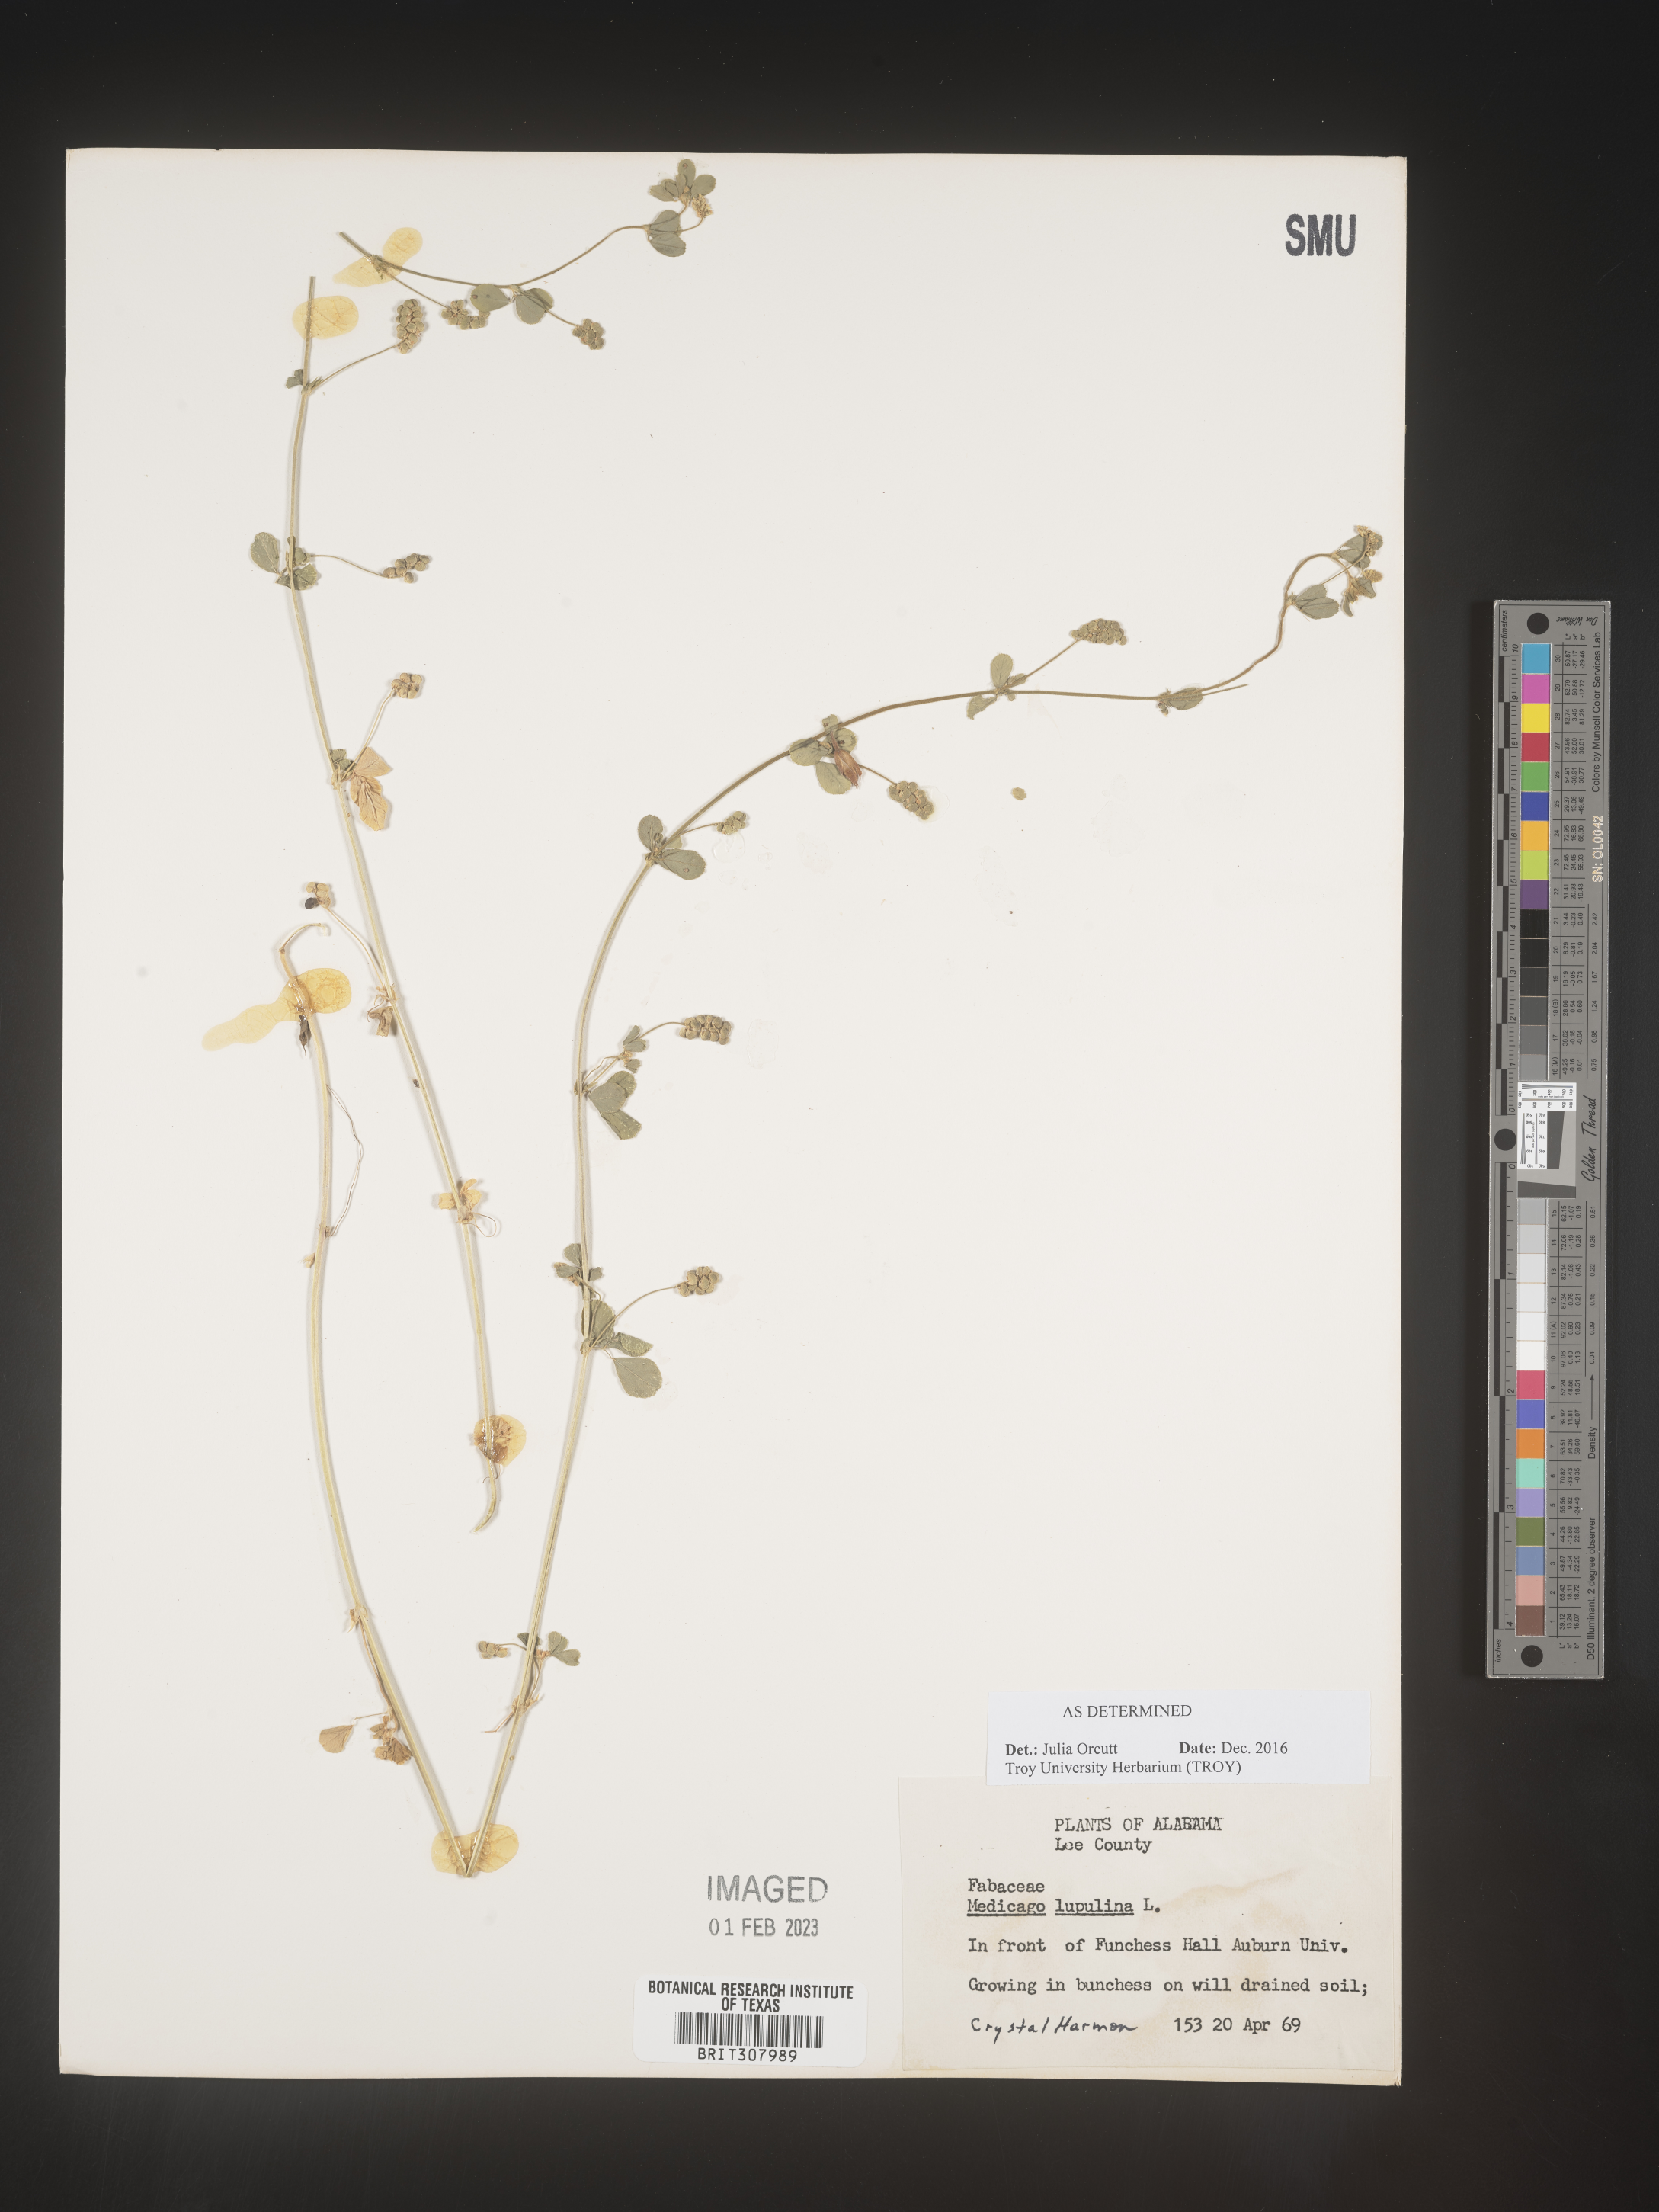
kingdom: Plantae
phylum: Tracheophyta
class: Magnoliopsida
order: Fabales
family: Fabaceae
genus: Medicago
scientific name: Medicago lupulina
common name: Black medick
